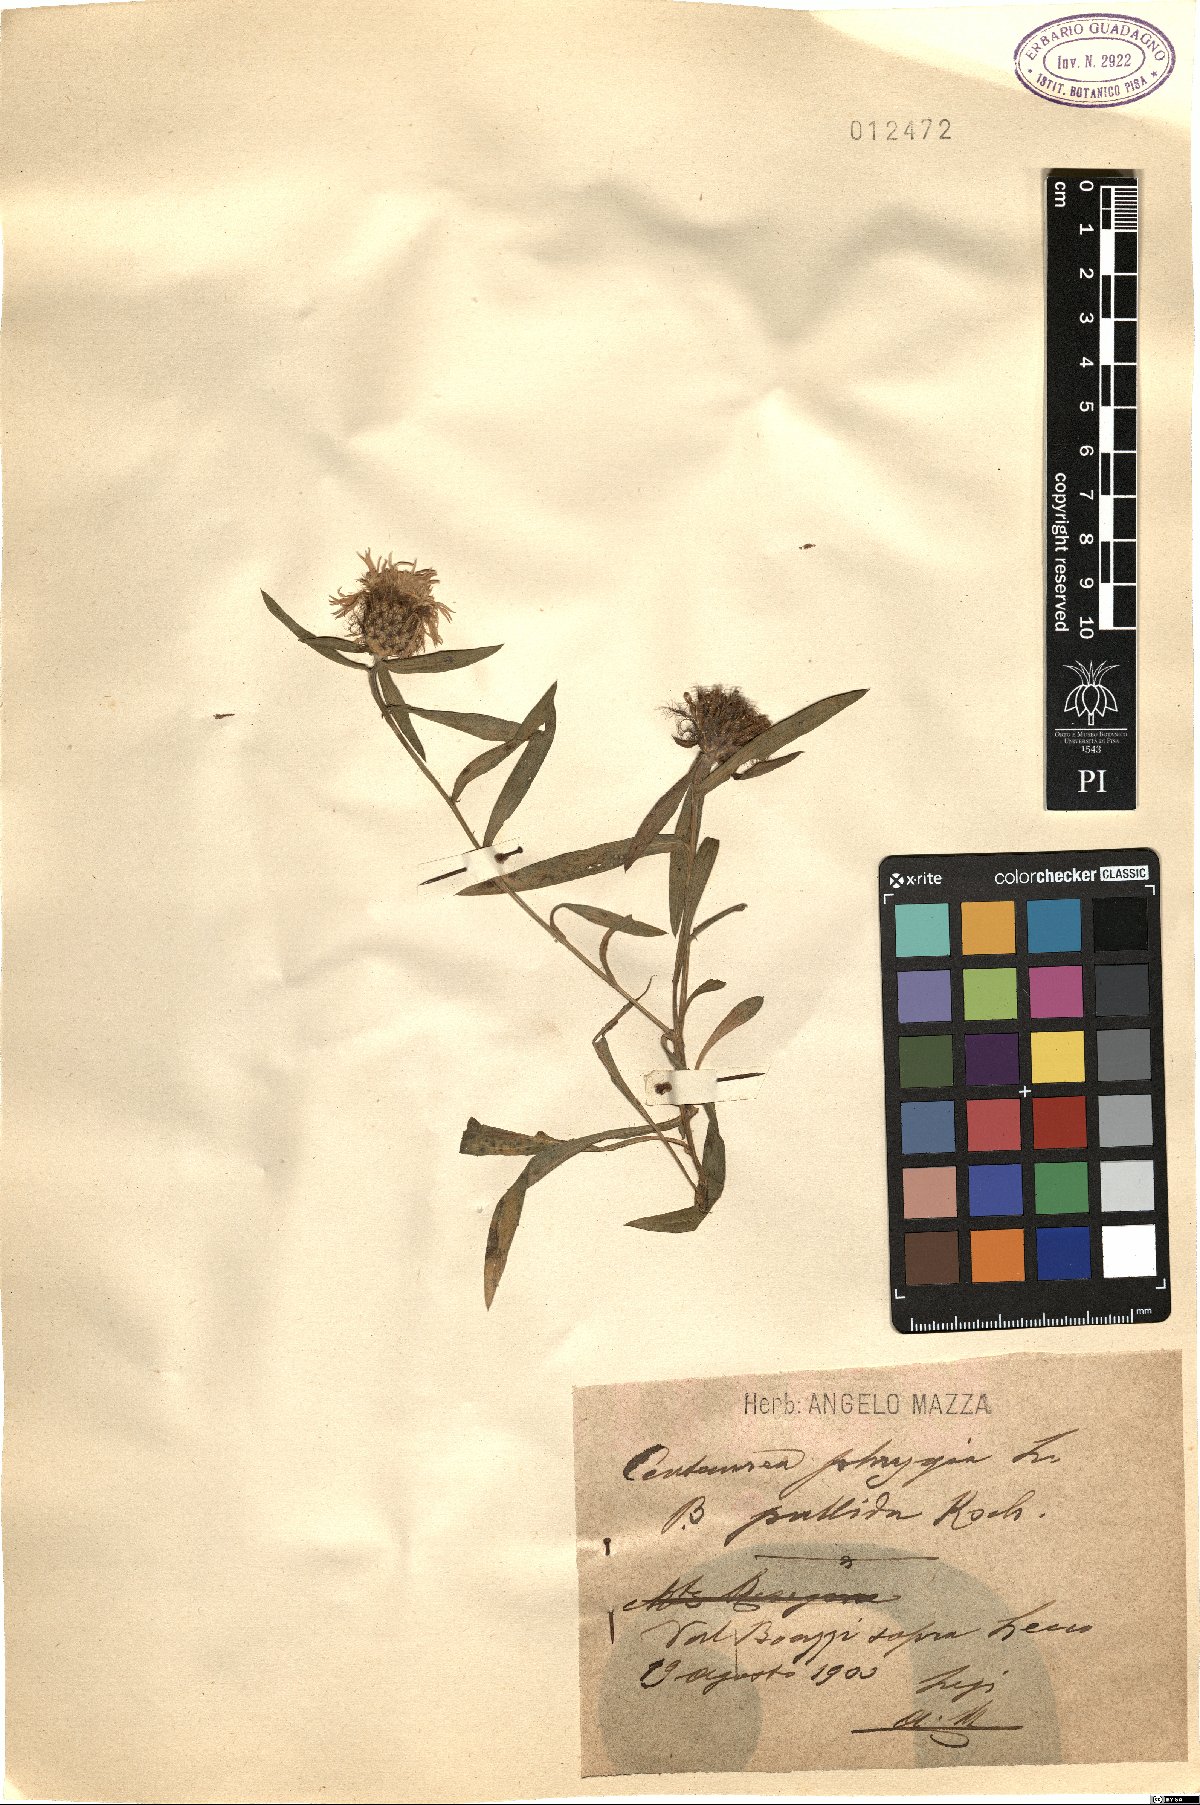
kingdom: Plantae
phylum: Tracheophyta
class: Magnoliopsida
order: Asterales
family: Asteraceae
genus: Centaurea
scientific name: Centaurea pseudophrygia
